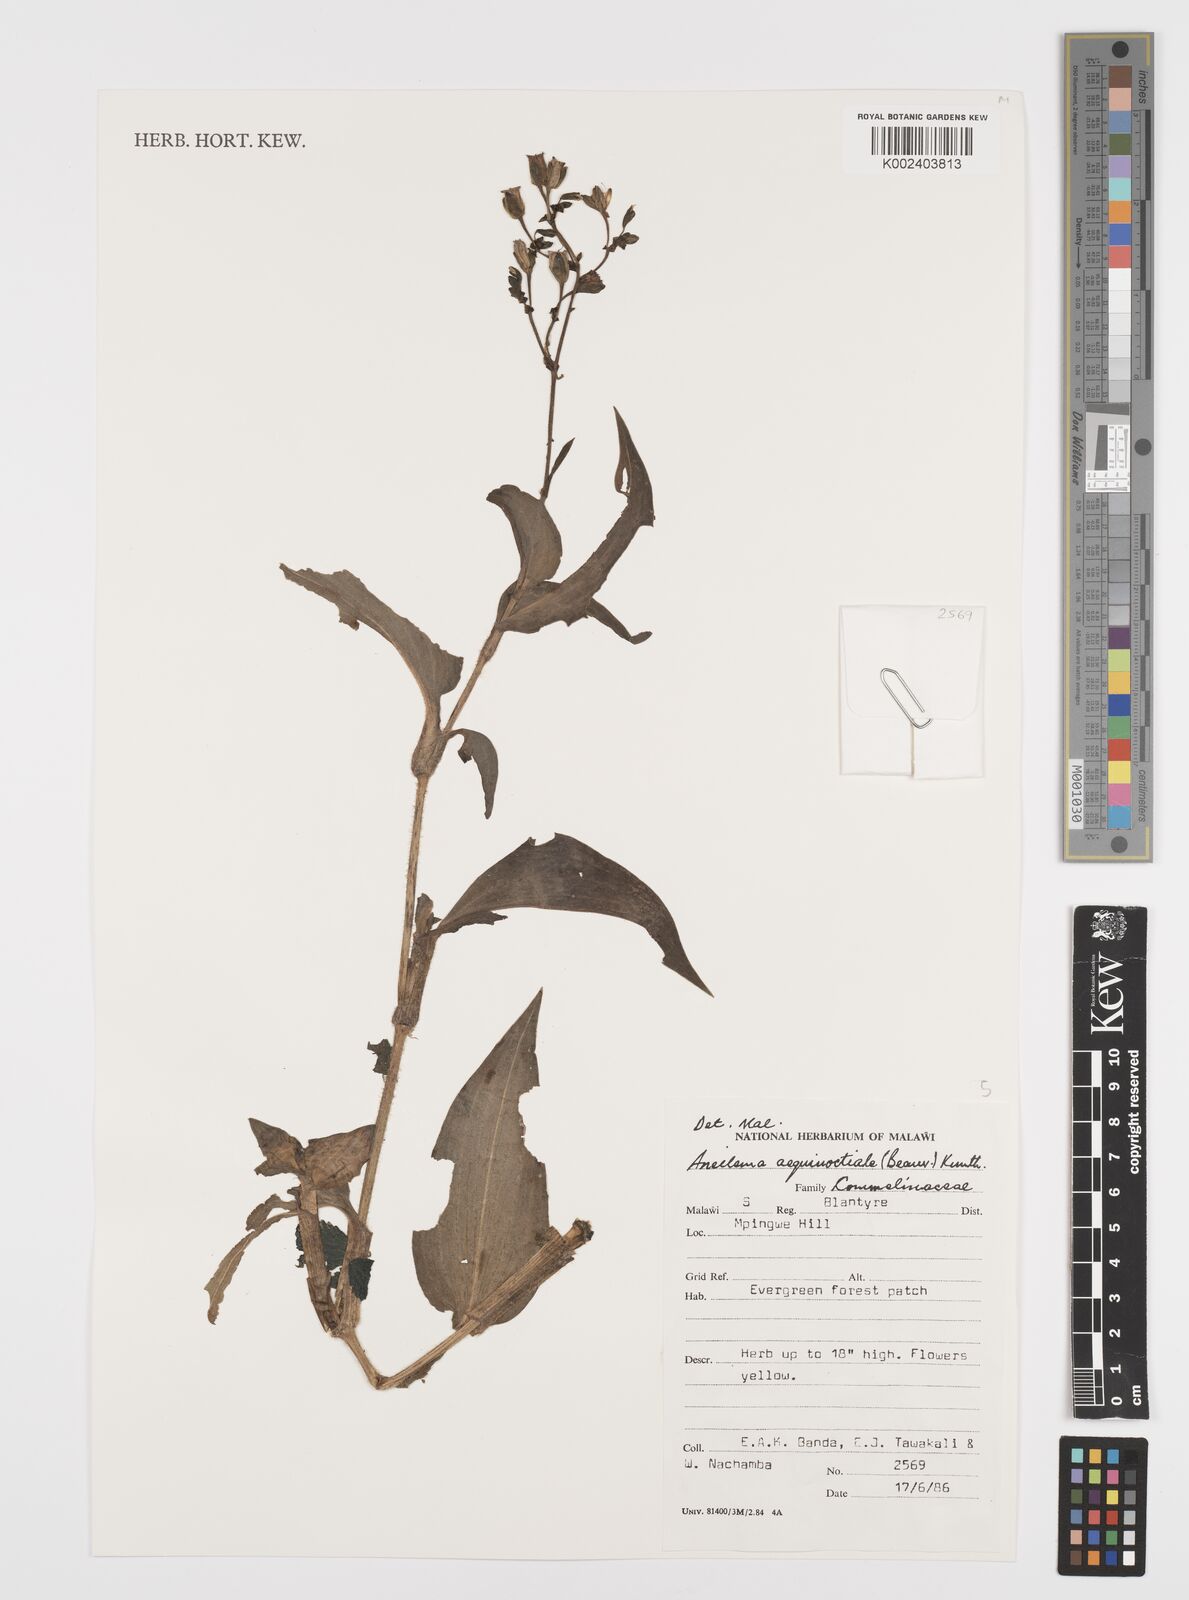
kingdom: Plantae
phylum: Tracheophyta
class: Liliopsida
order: Commelinales
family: Commelinaceae
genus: Aneilema
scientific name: Aneilema aequinoctiale
